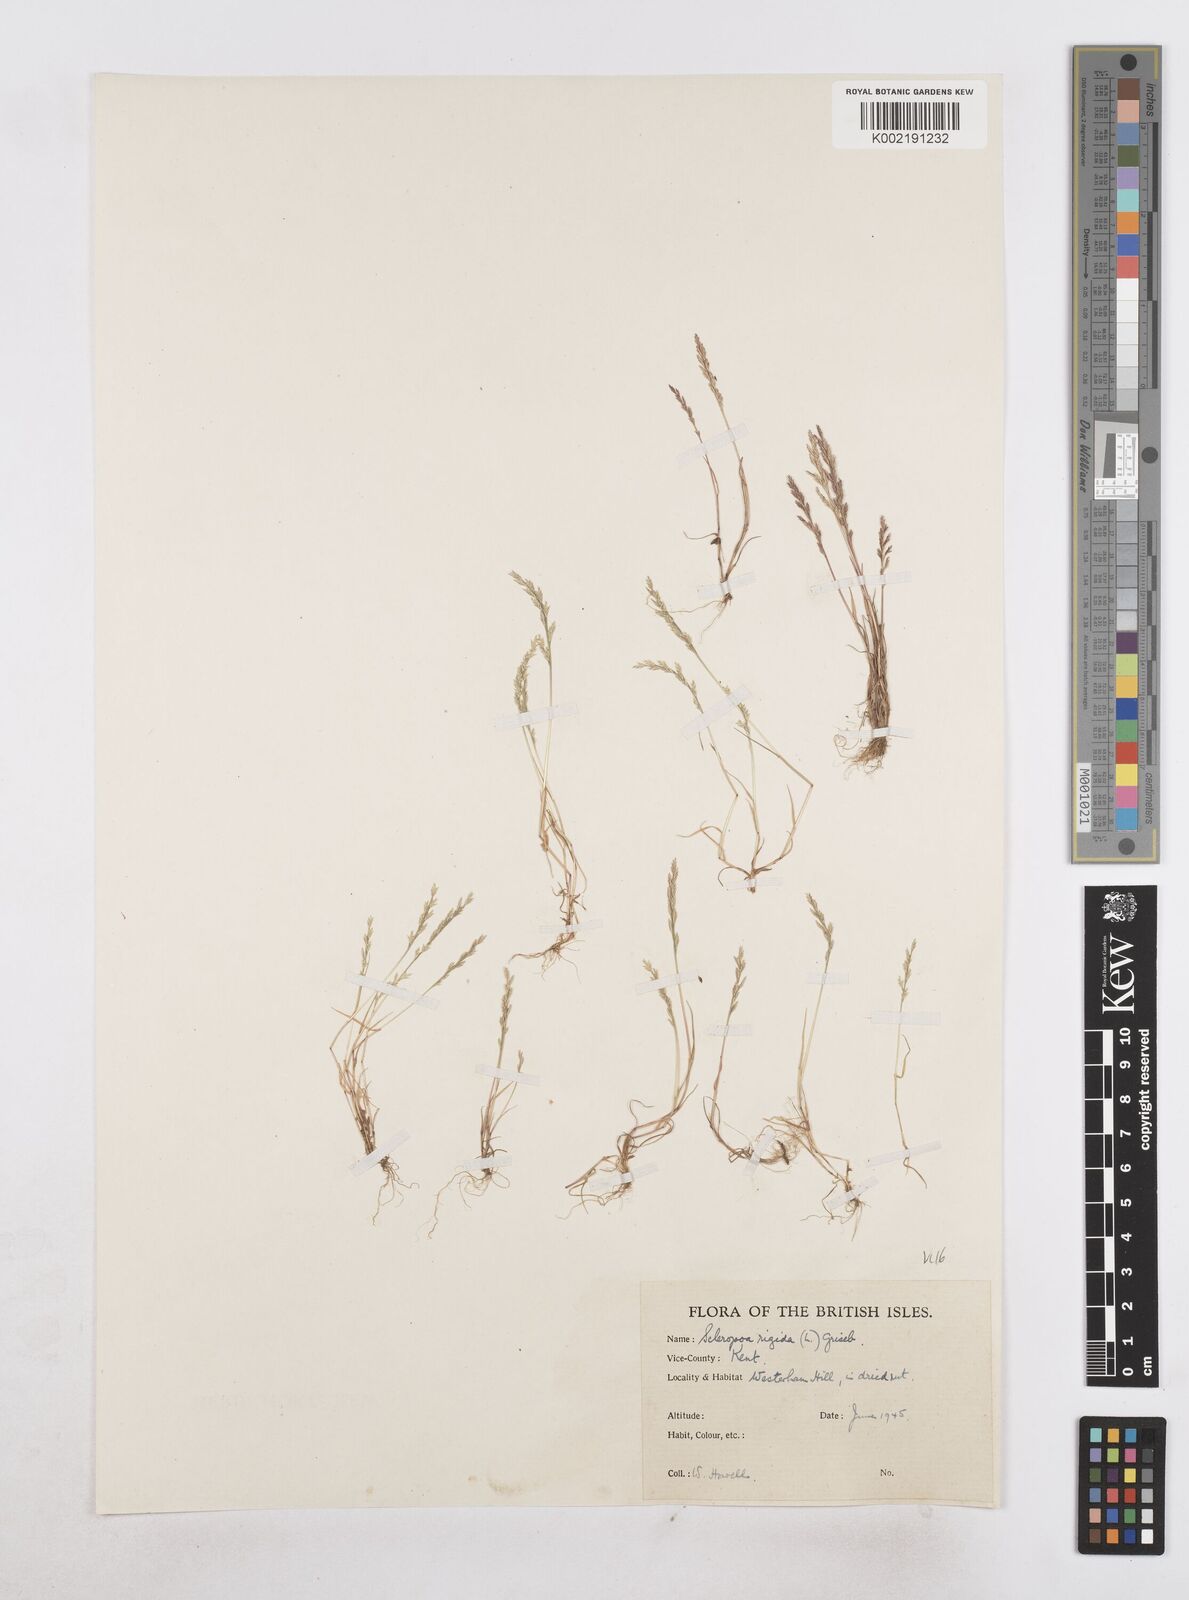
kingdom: Plantae
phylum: Tracheophyta
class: Liliopsida
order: Poales
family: Poaceae
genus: Catapodium
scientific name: Catapodium rigidum
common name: Fern-grass
